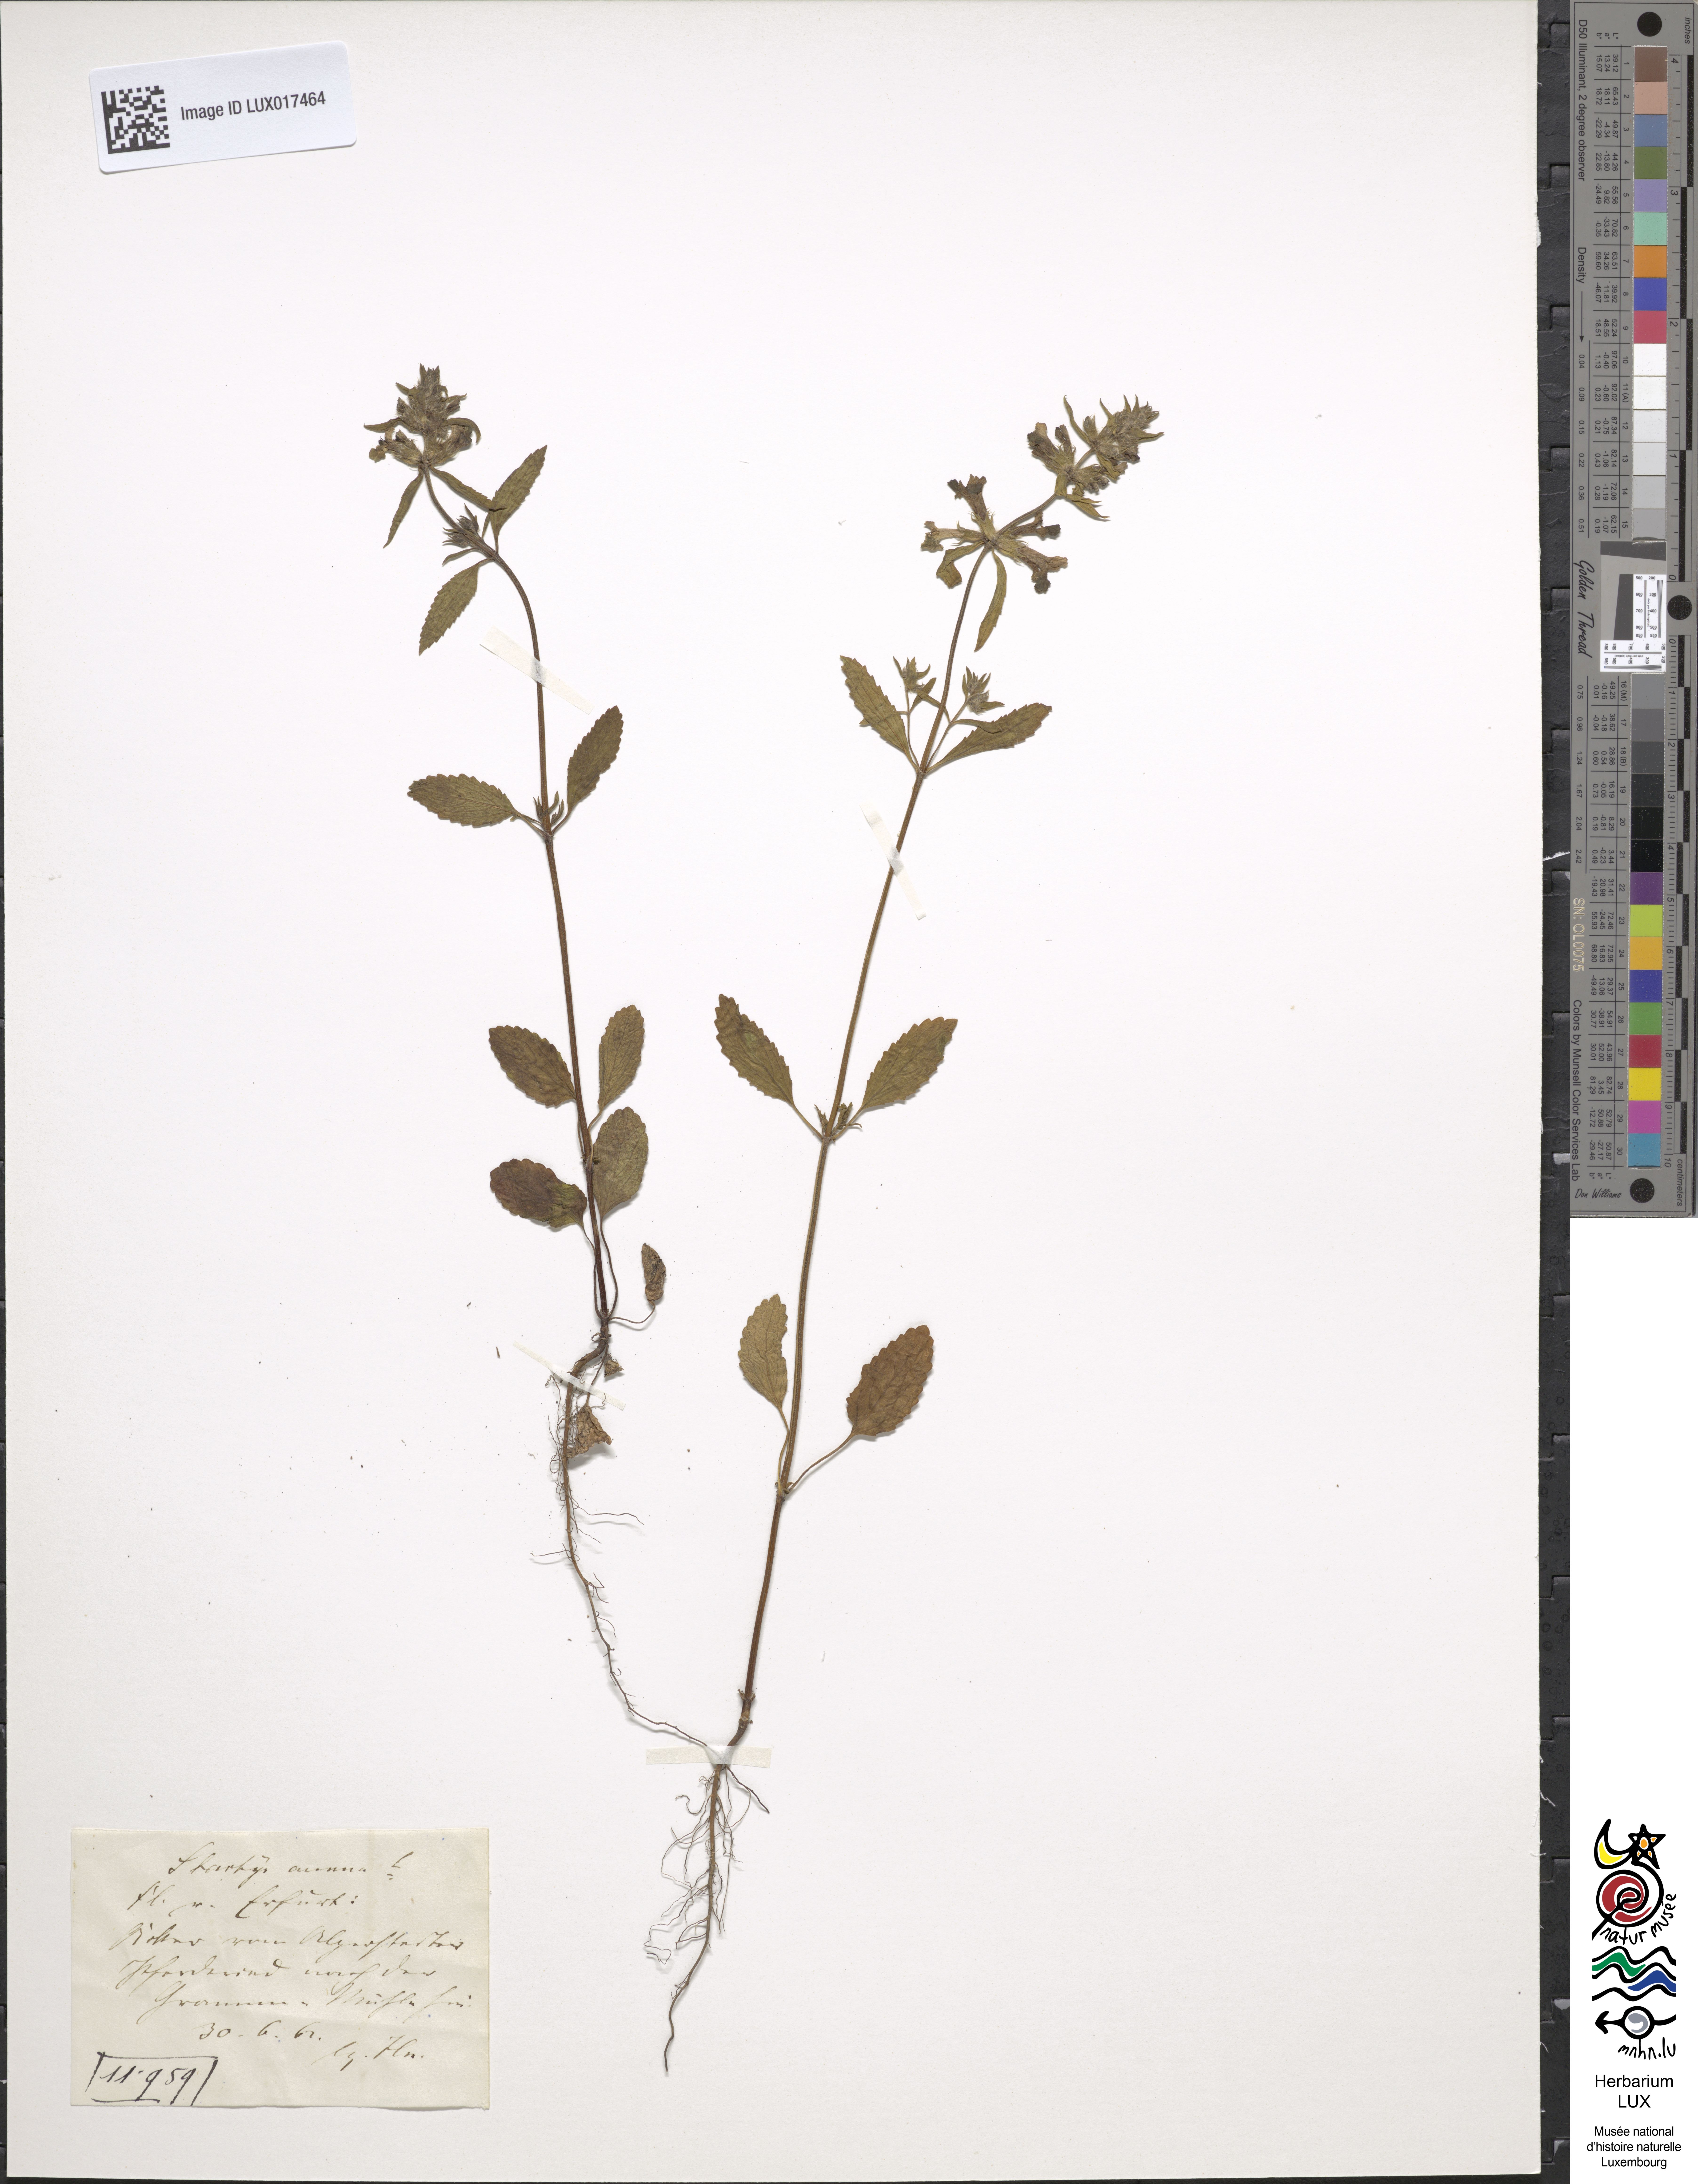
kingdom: Plantae
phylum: Tracheophyta
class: Magnoliopsida
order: Lamiales
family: Lamiaceae
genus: Stachys
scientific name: Stachys annua
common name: Annual yellow-woundwort
